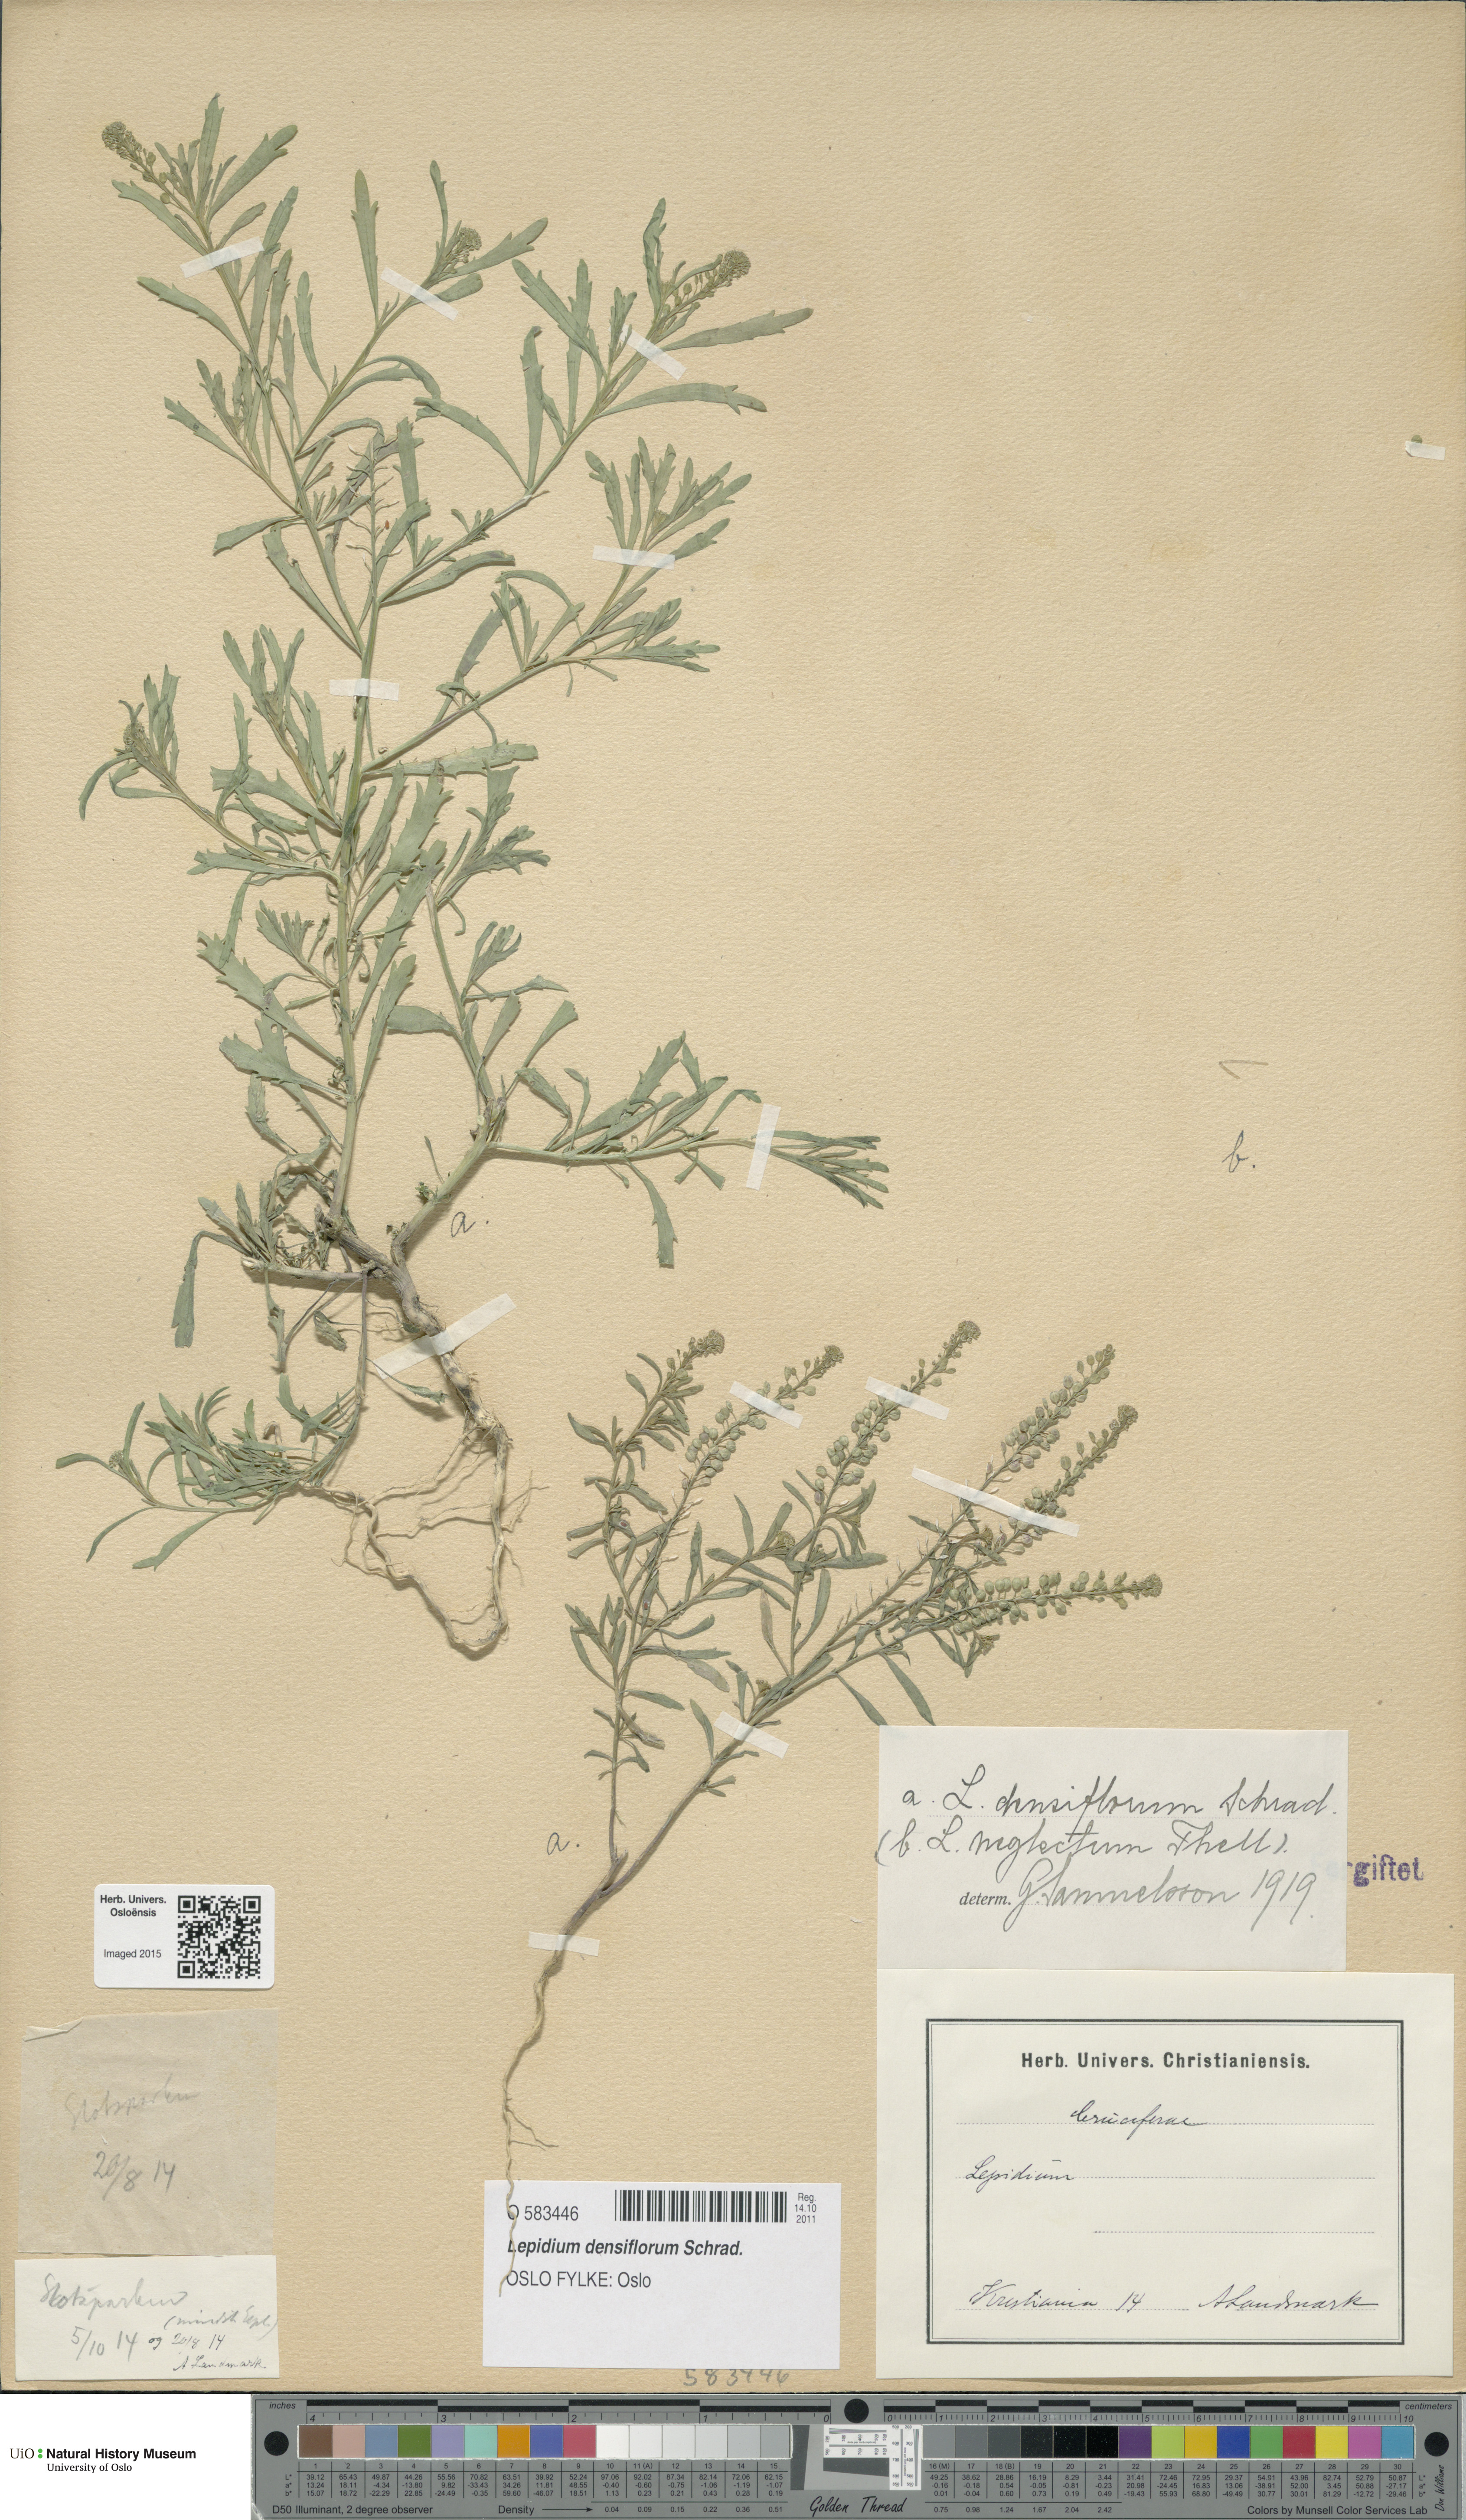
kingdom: Plantae
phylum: Tracheophyta
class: Magnoliopsida
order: Brassicales
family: Brassicaceae
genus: Lepidium
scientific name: Lepidium densiflorum
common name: Miner's pepperwort
